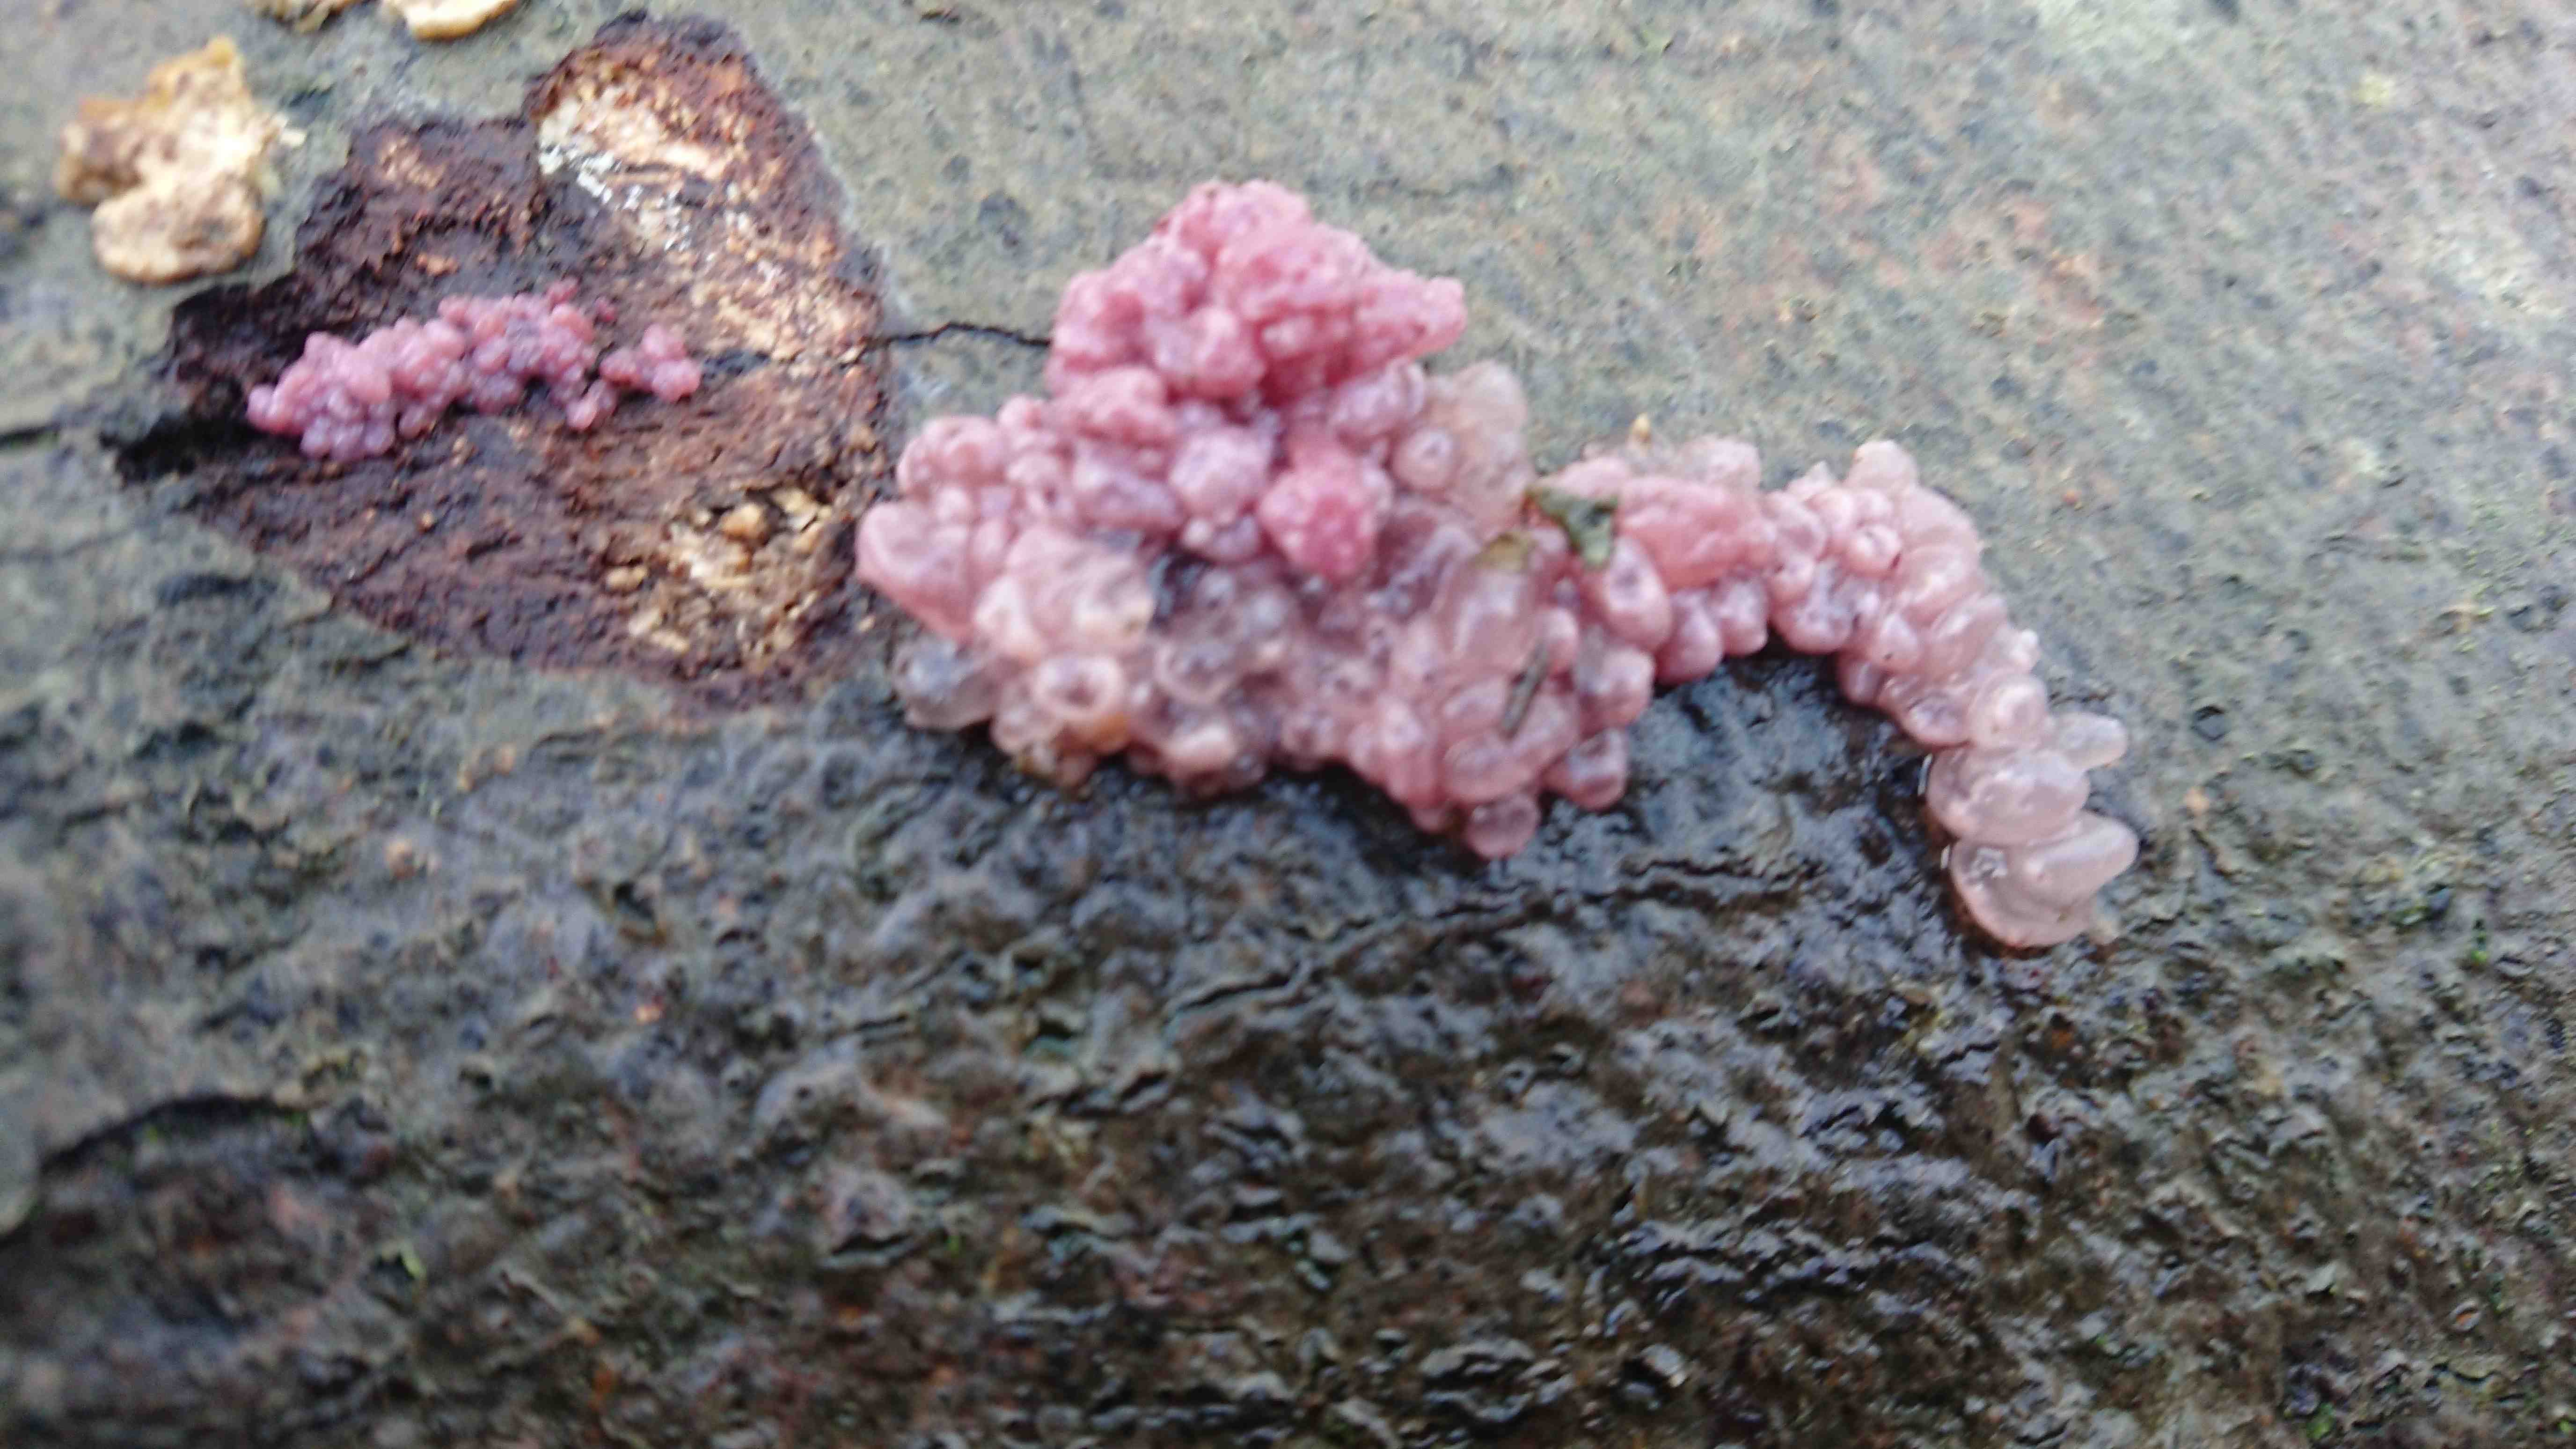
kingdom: Fungi
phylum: Ascomycota
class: Leotiomycetes
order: Helotiales
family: Gelatinodiscaceae
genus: Ascocoryne
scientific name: Ascocoryne sarcoides
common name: rødlilla sejskive
